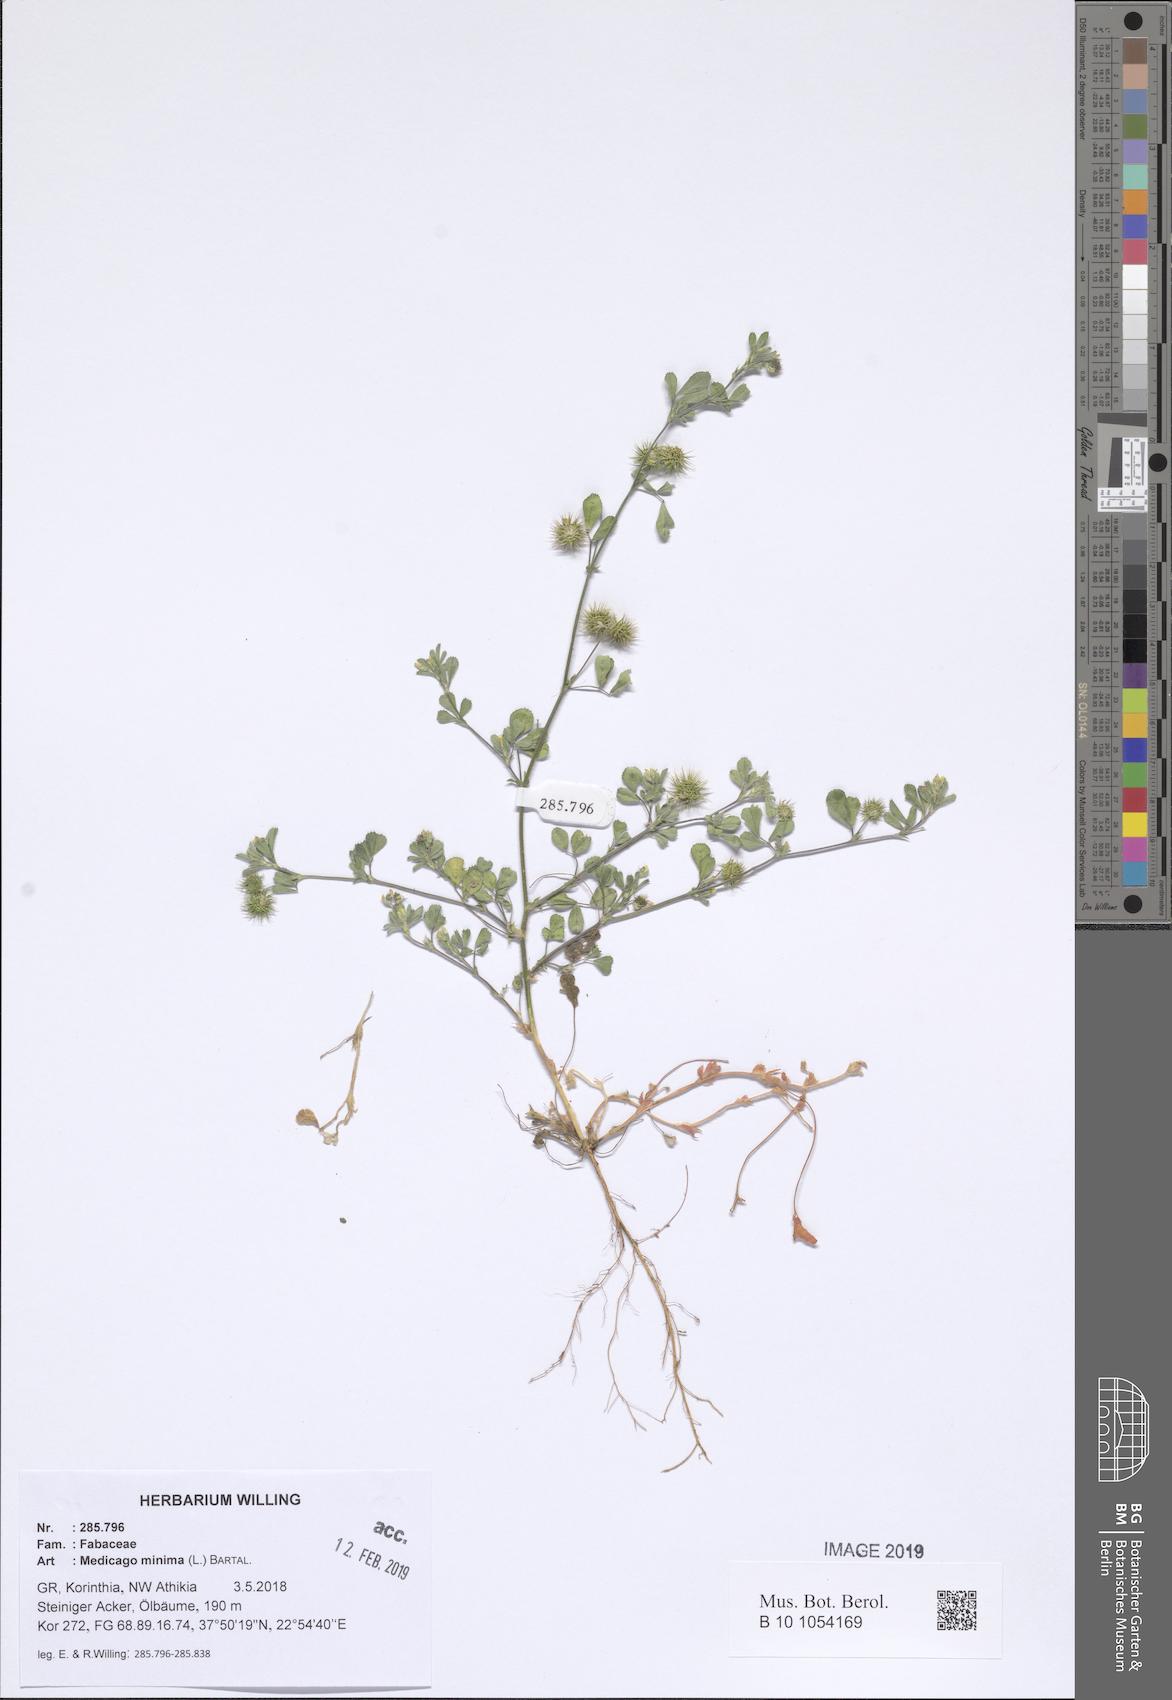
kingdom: Plantae
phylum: Tracheophyta
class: Magnoliopsida
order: Fabales
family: Fabaceae
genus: Medicago
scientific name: Medicago minima
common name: Little bur-clover
